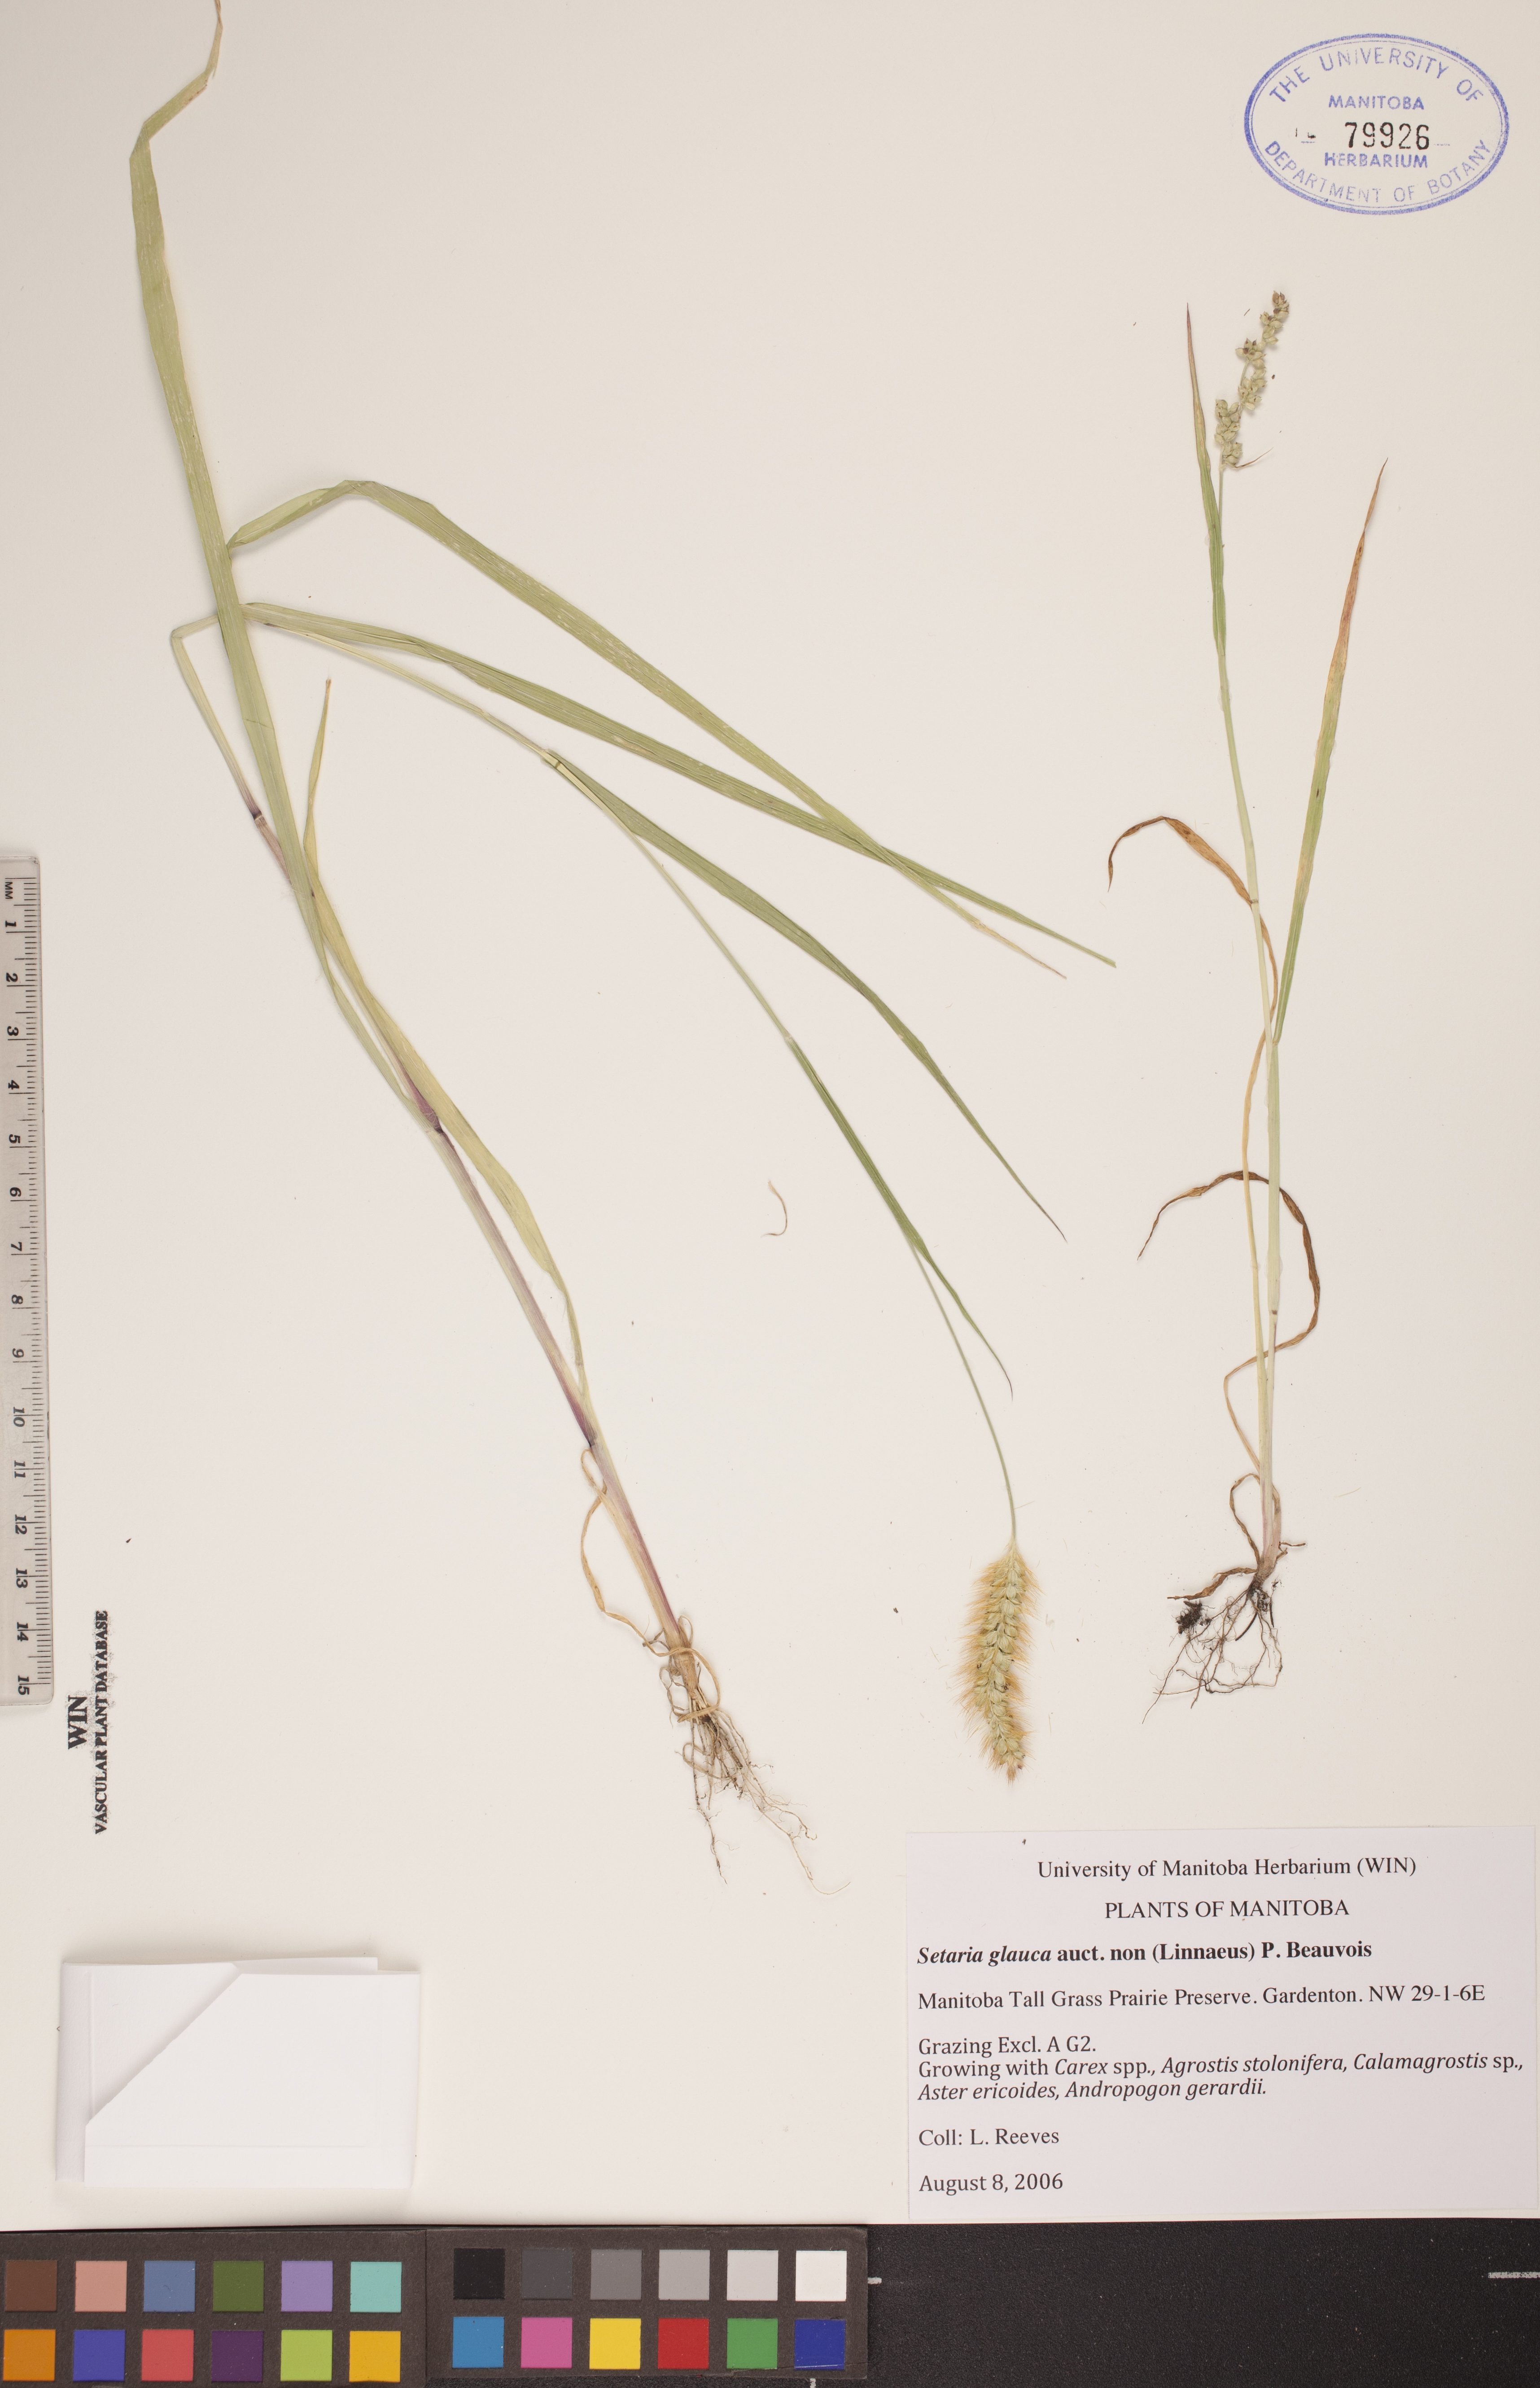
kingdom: Plantae
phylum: Tracheophyta
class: Liliopsida
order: Poales
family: Poaceae
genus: Cenchrus
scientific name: Cenchrus americanus
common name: Pearl millet
